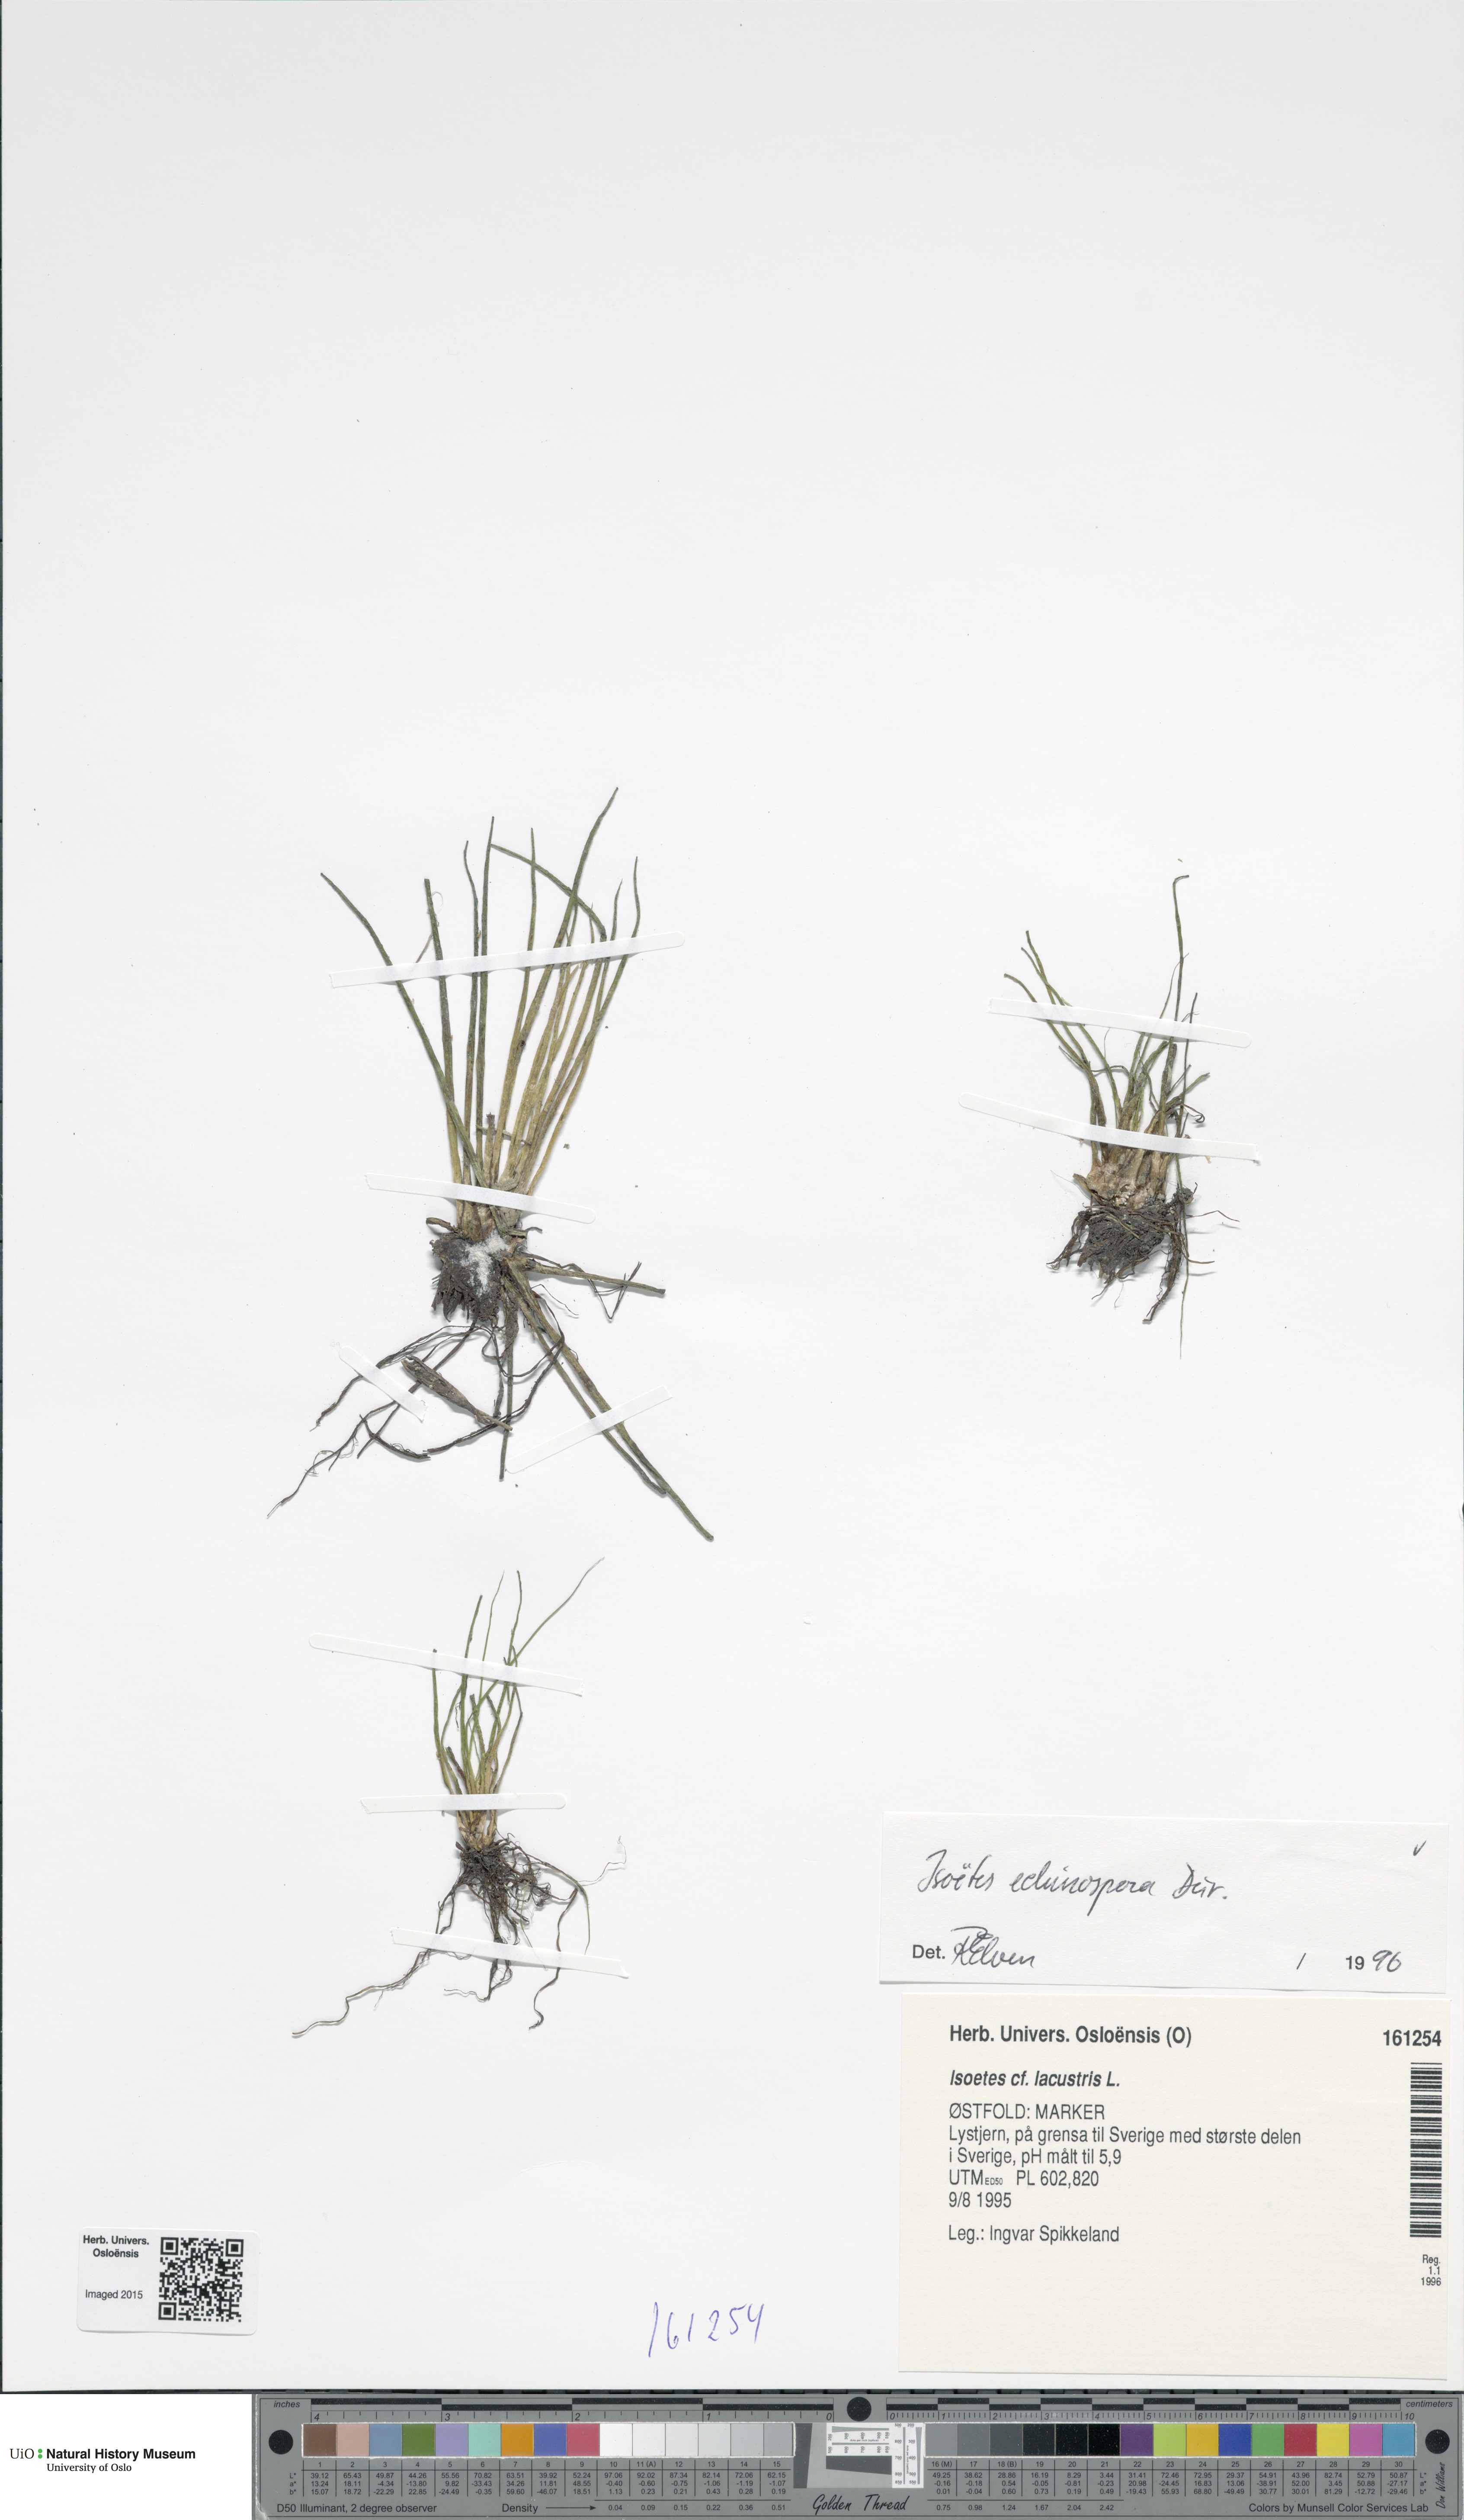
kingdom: Plantae
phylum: Tracheophyta
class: Lycopodiopsida
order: Isoetales
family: Isoetaceae
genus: Isoetes
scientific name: Isoetes echinospora
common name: Spring quillwort
